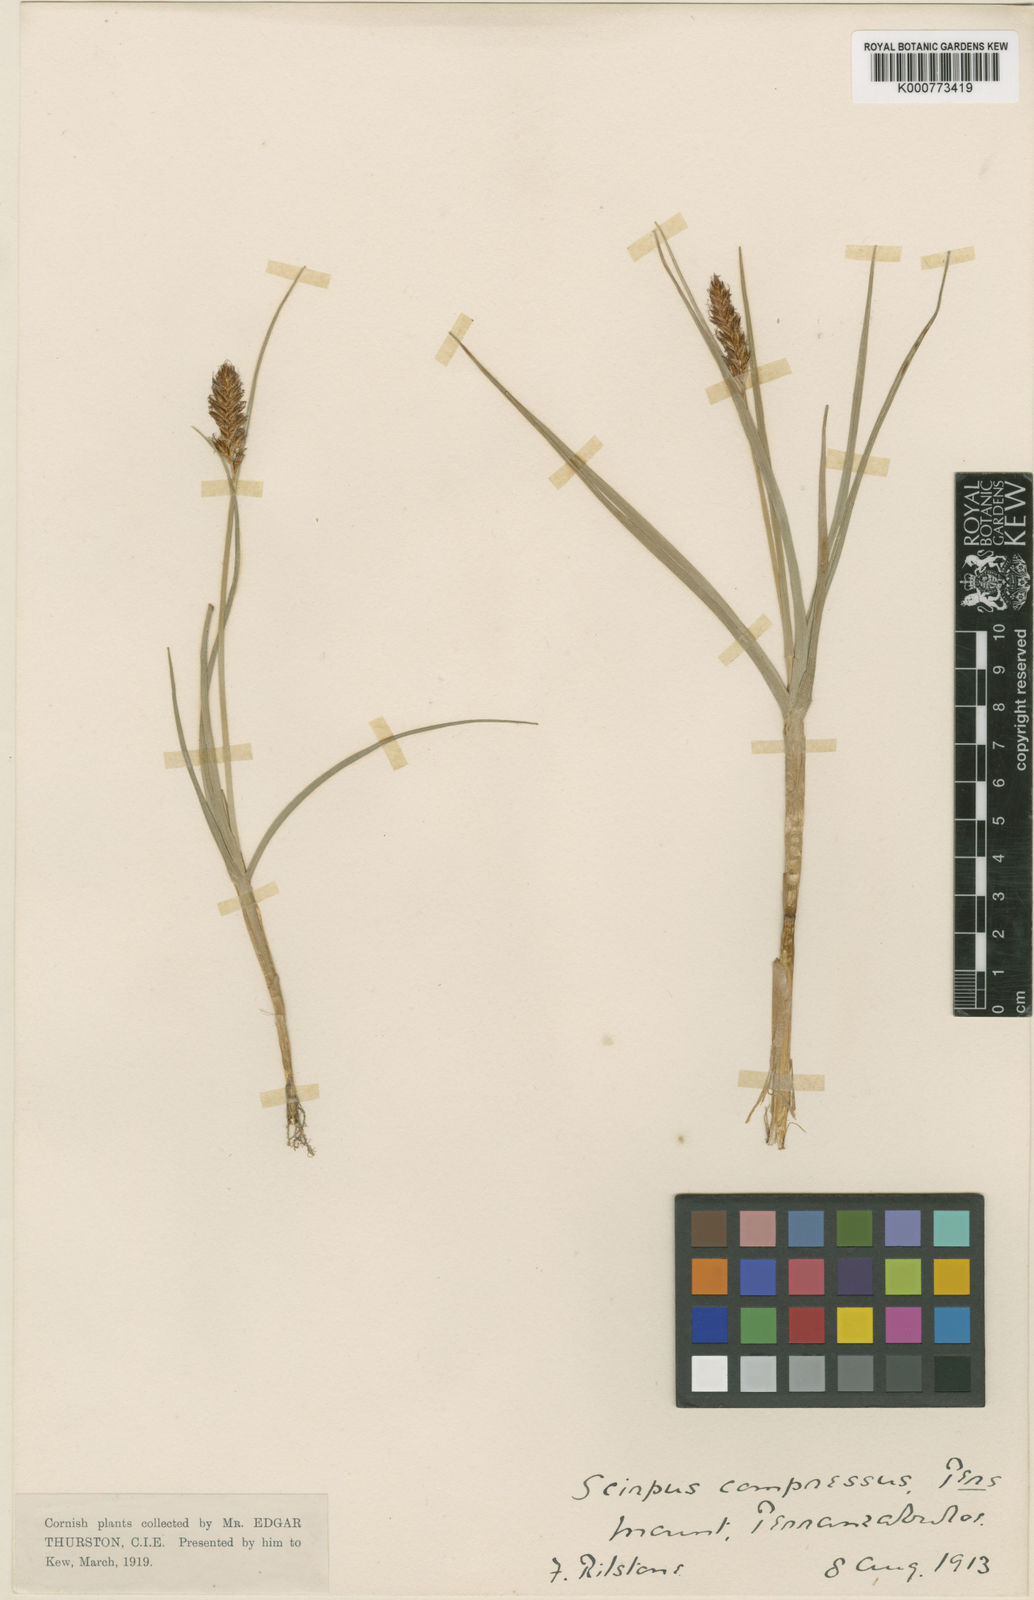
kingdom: Plantae
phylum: Tracheophyta
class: Liliopsida
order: Poales
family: Cyperaceae
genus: Blysmus
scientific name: Blysmus compressus
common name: Flat-sedge
